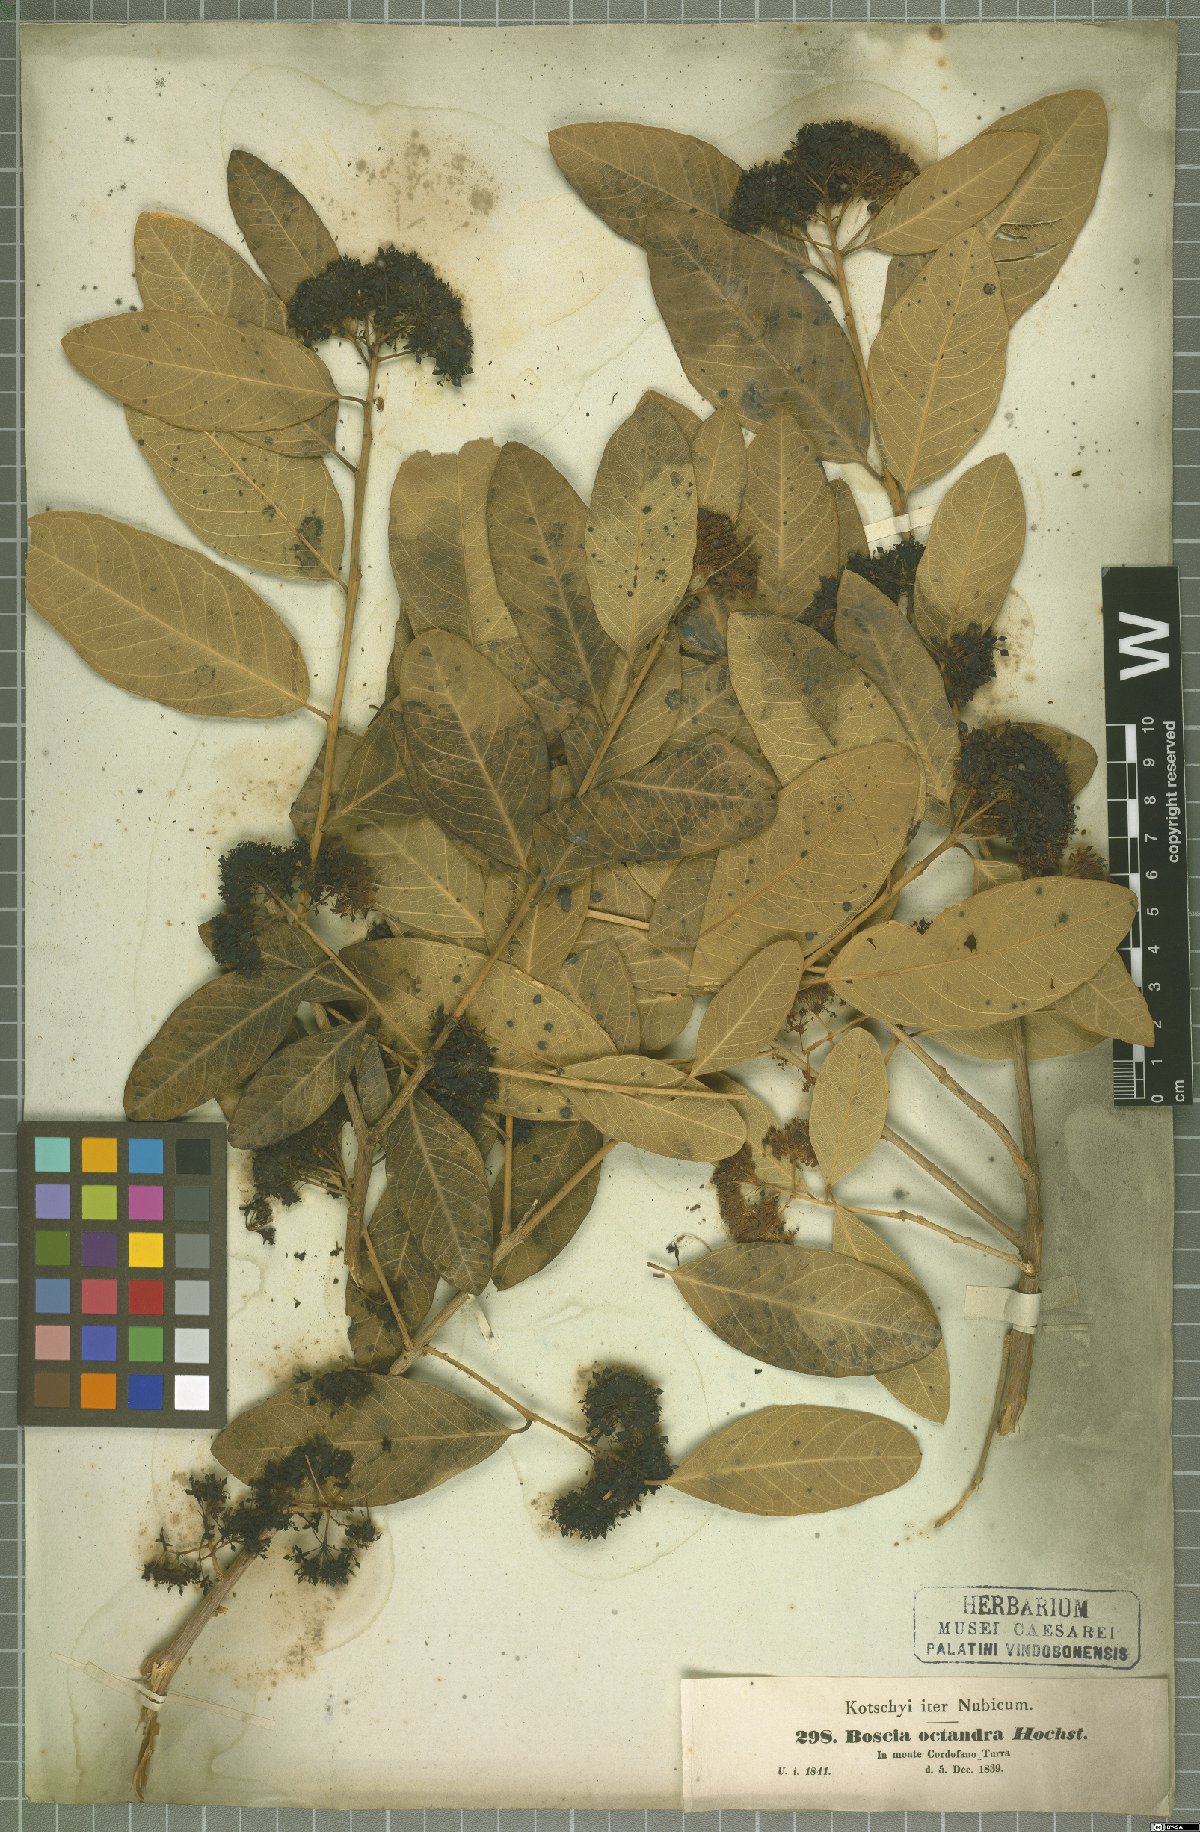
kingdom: Plantae
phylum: Tracheophyta
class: Magnoliopsida
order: Brassicales
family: Capparaceae
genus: Boscia
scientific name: Boscia senegalensis
